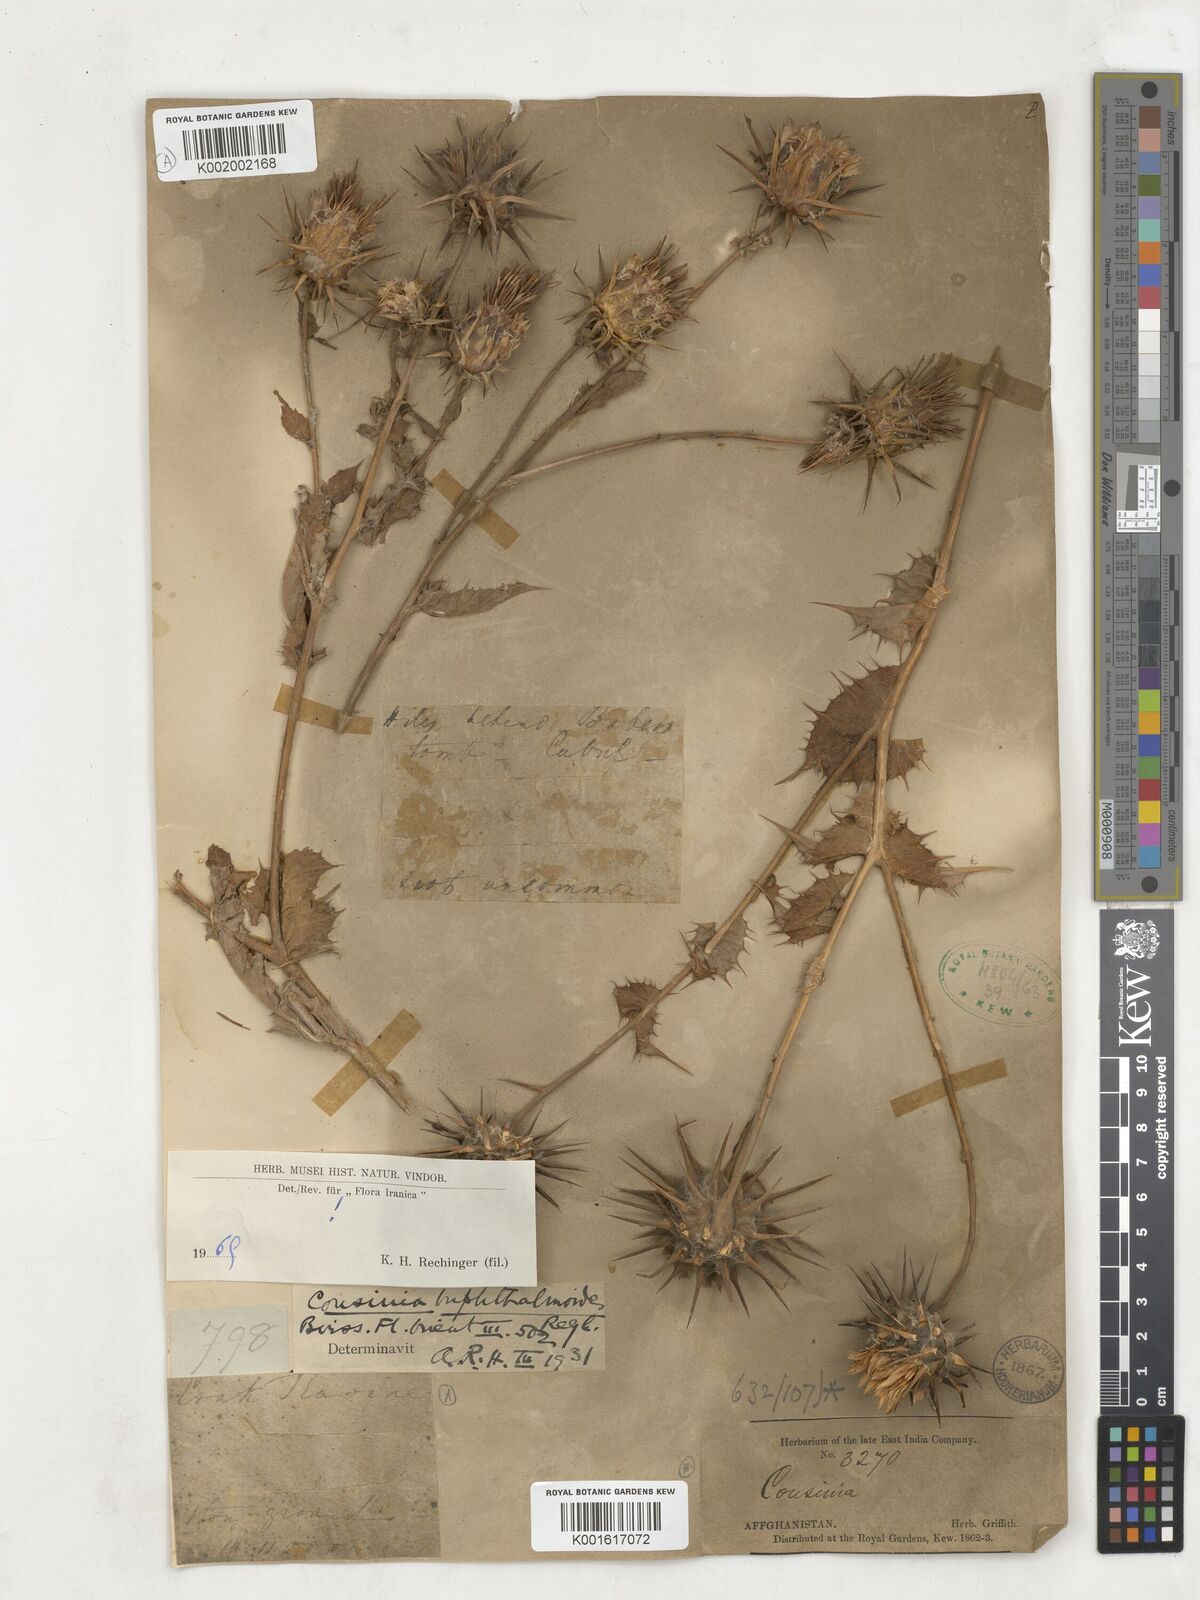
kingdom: Plantae
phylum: Tracheophyta
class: Magnoliopsida
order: Asterales
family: Asteraceae
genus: Cousinia
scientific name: Cousinia
